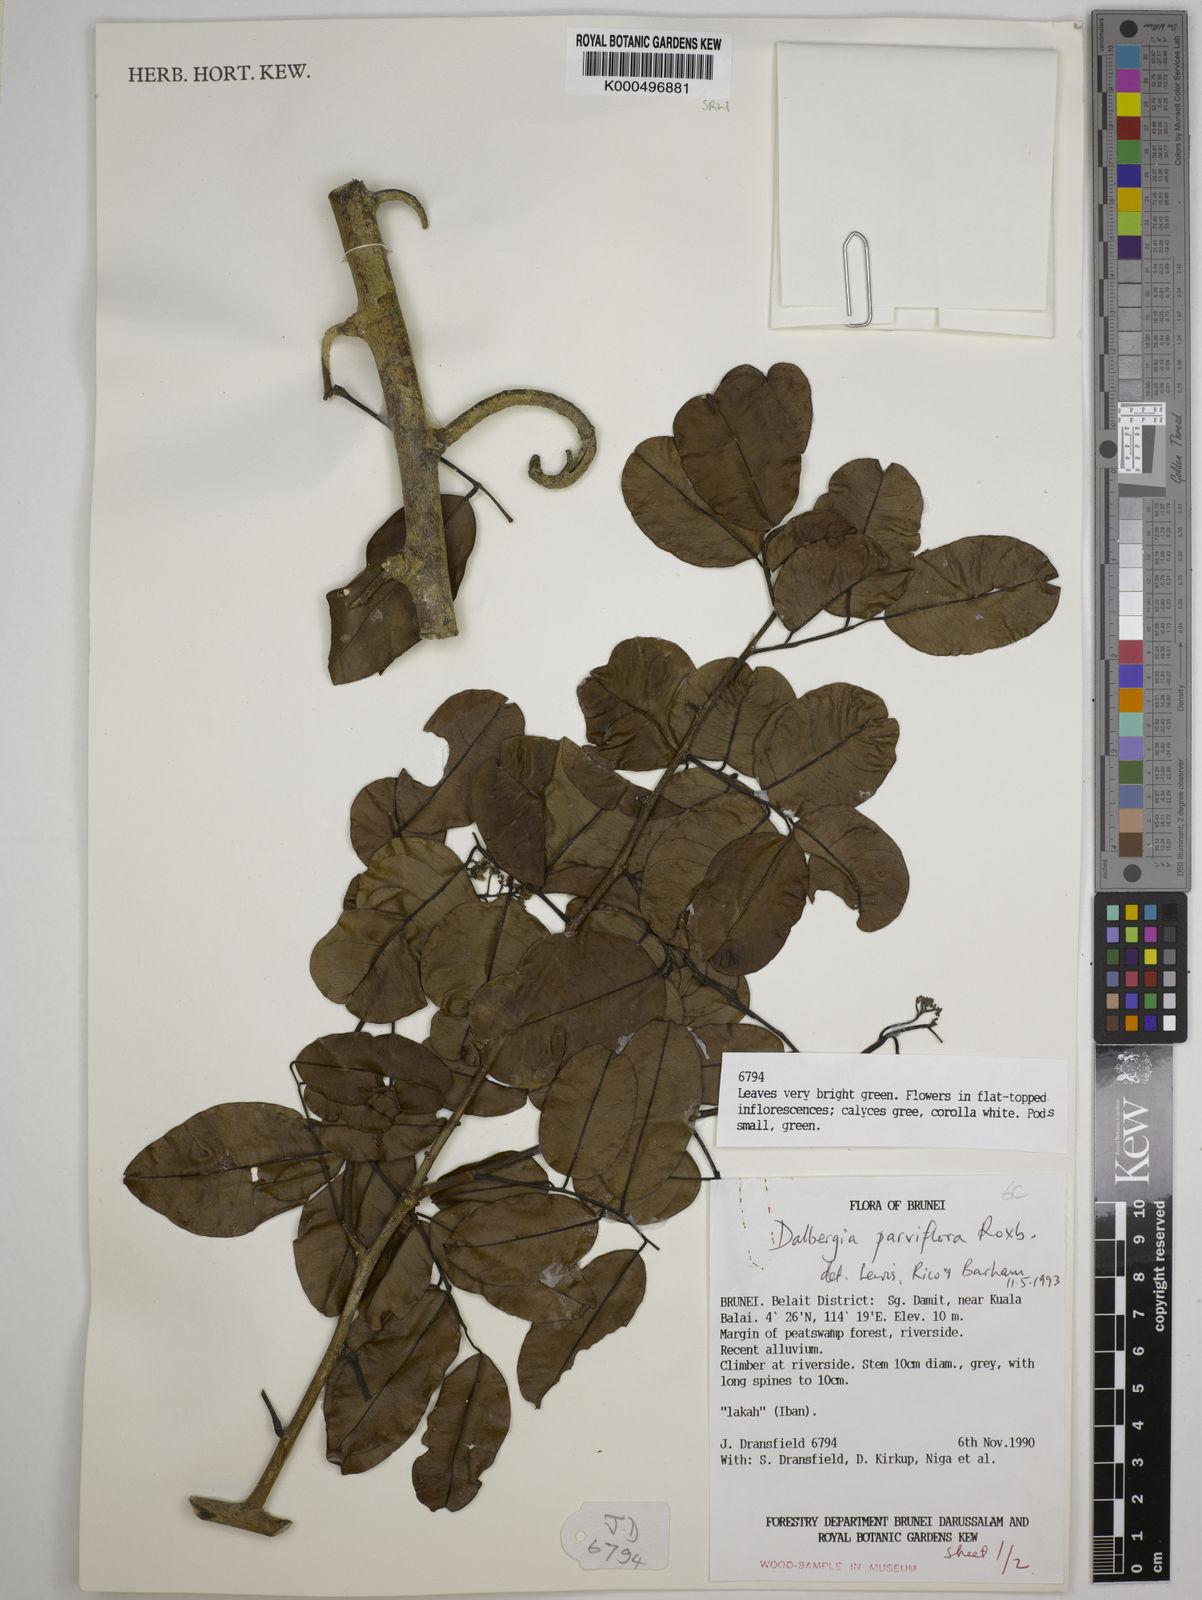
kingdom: Plantae
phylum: Tracheophyta
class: Magnoliopsida
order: Fabales
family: Fabaceae
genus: Dalbergia
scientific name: Dalbergia parviflora
